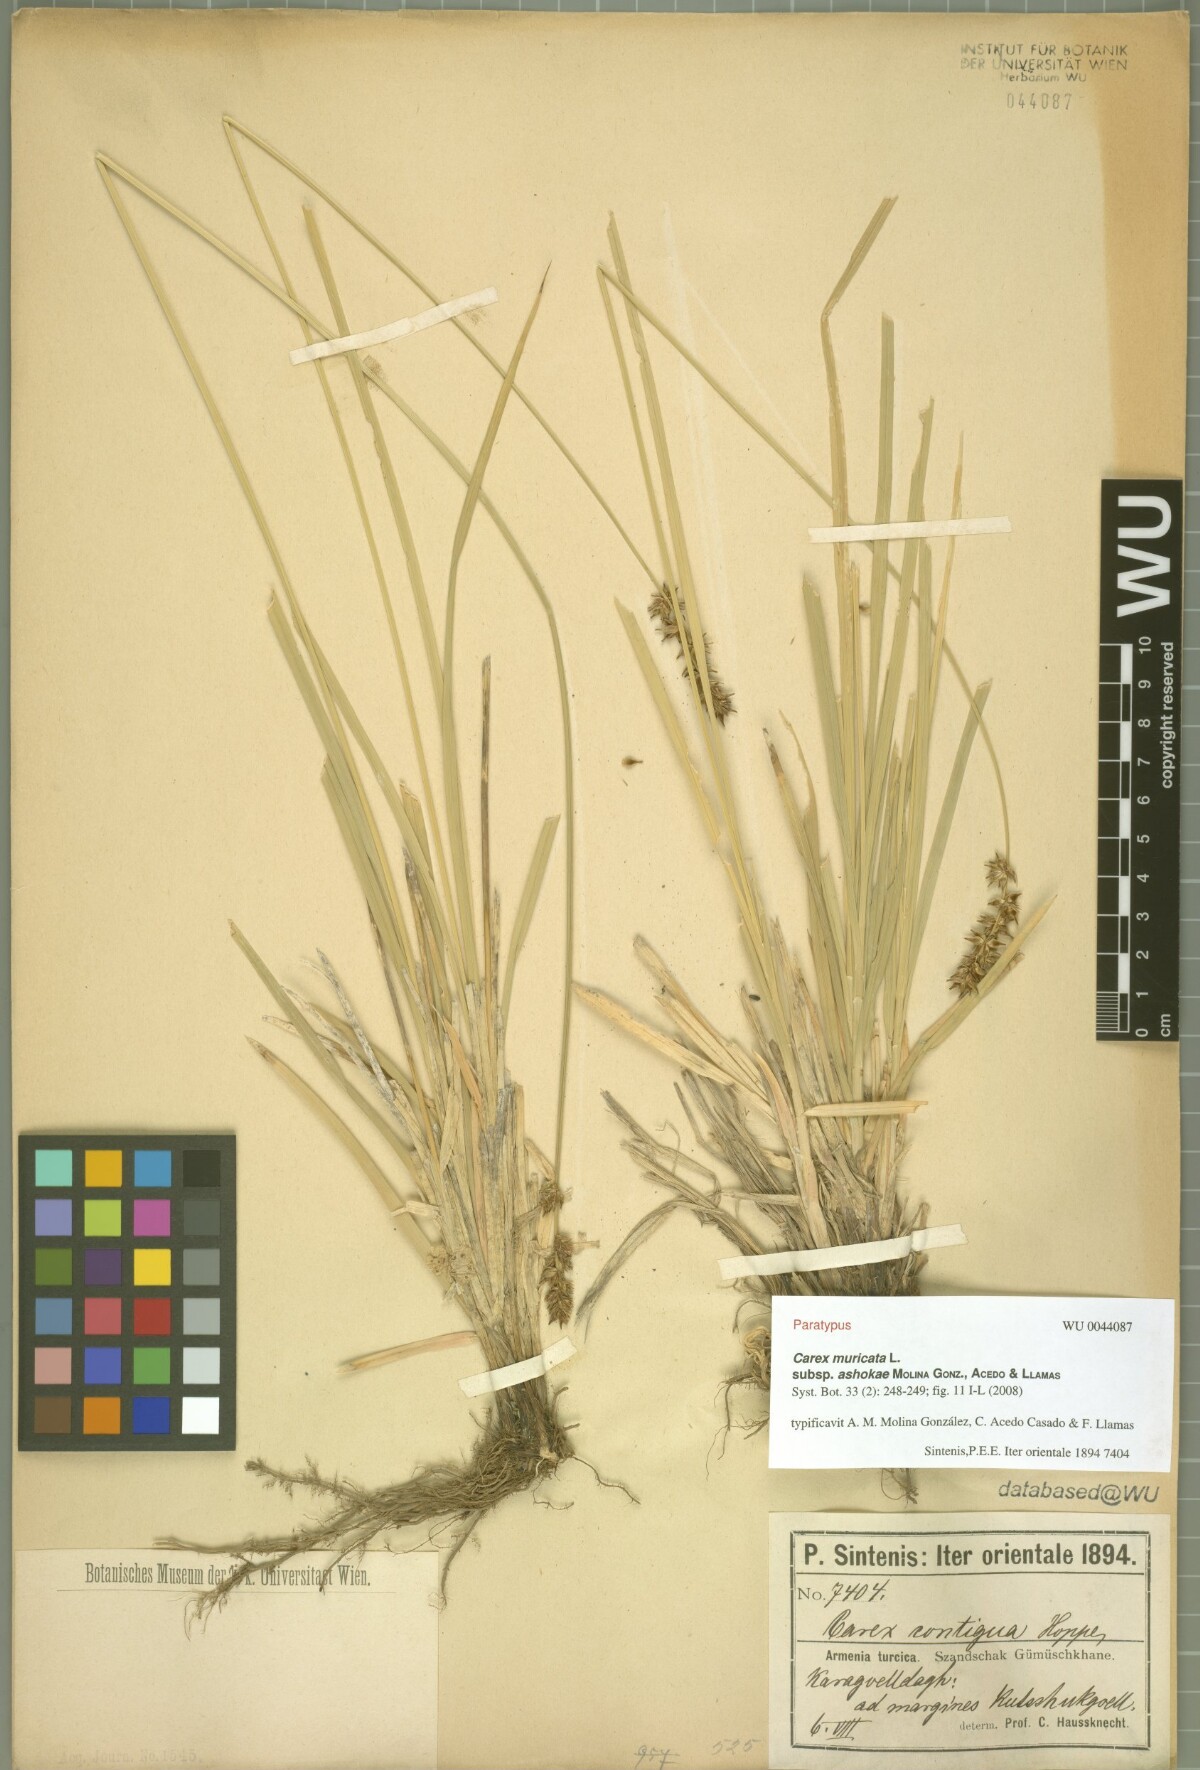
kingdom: Plantae
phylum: Tracheophyta
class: Liliopsida
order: Poales
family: Cyperaceae
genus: Carex
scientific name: Carex muricata
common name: Rough sedge
